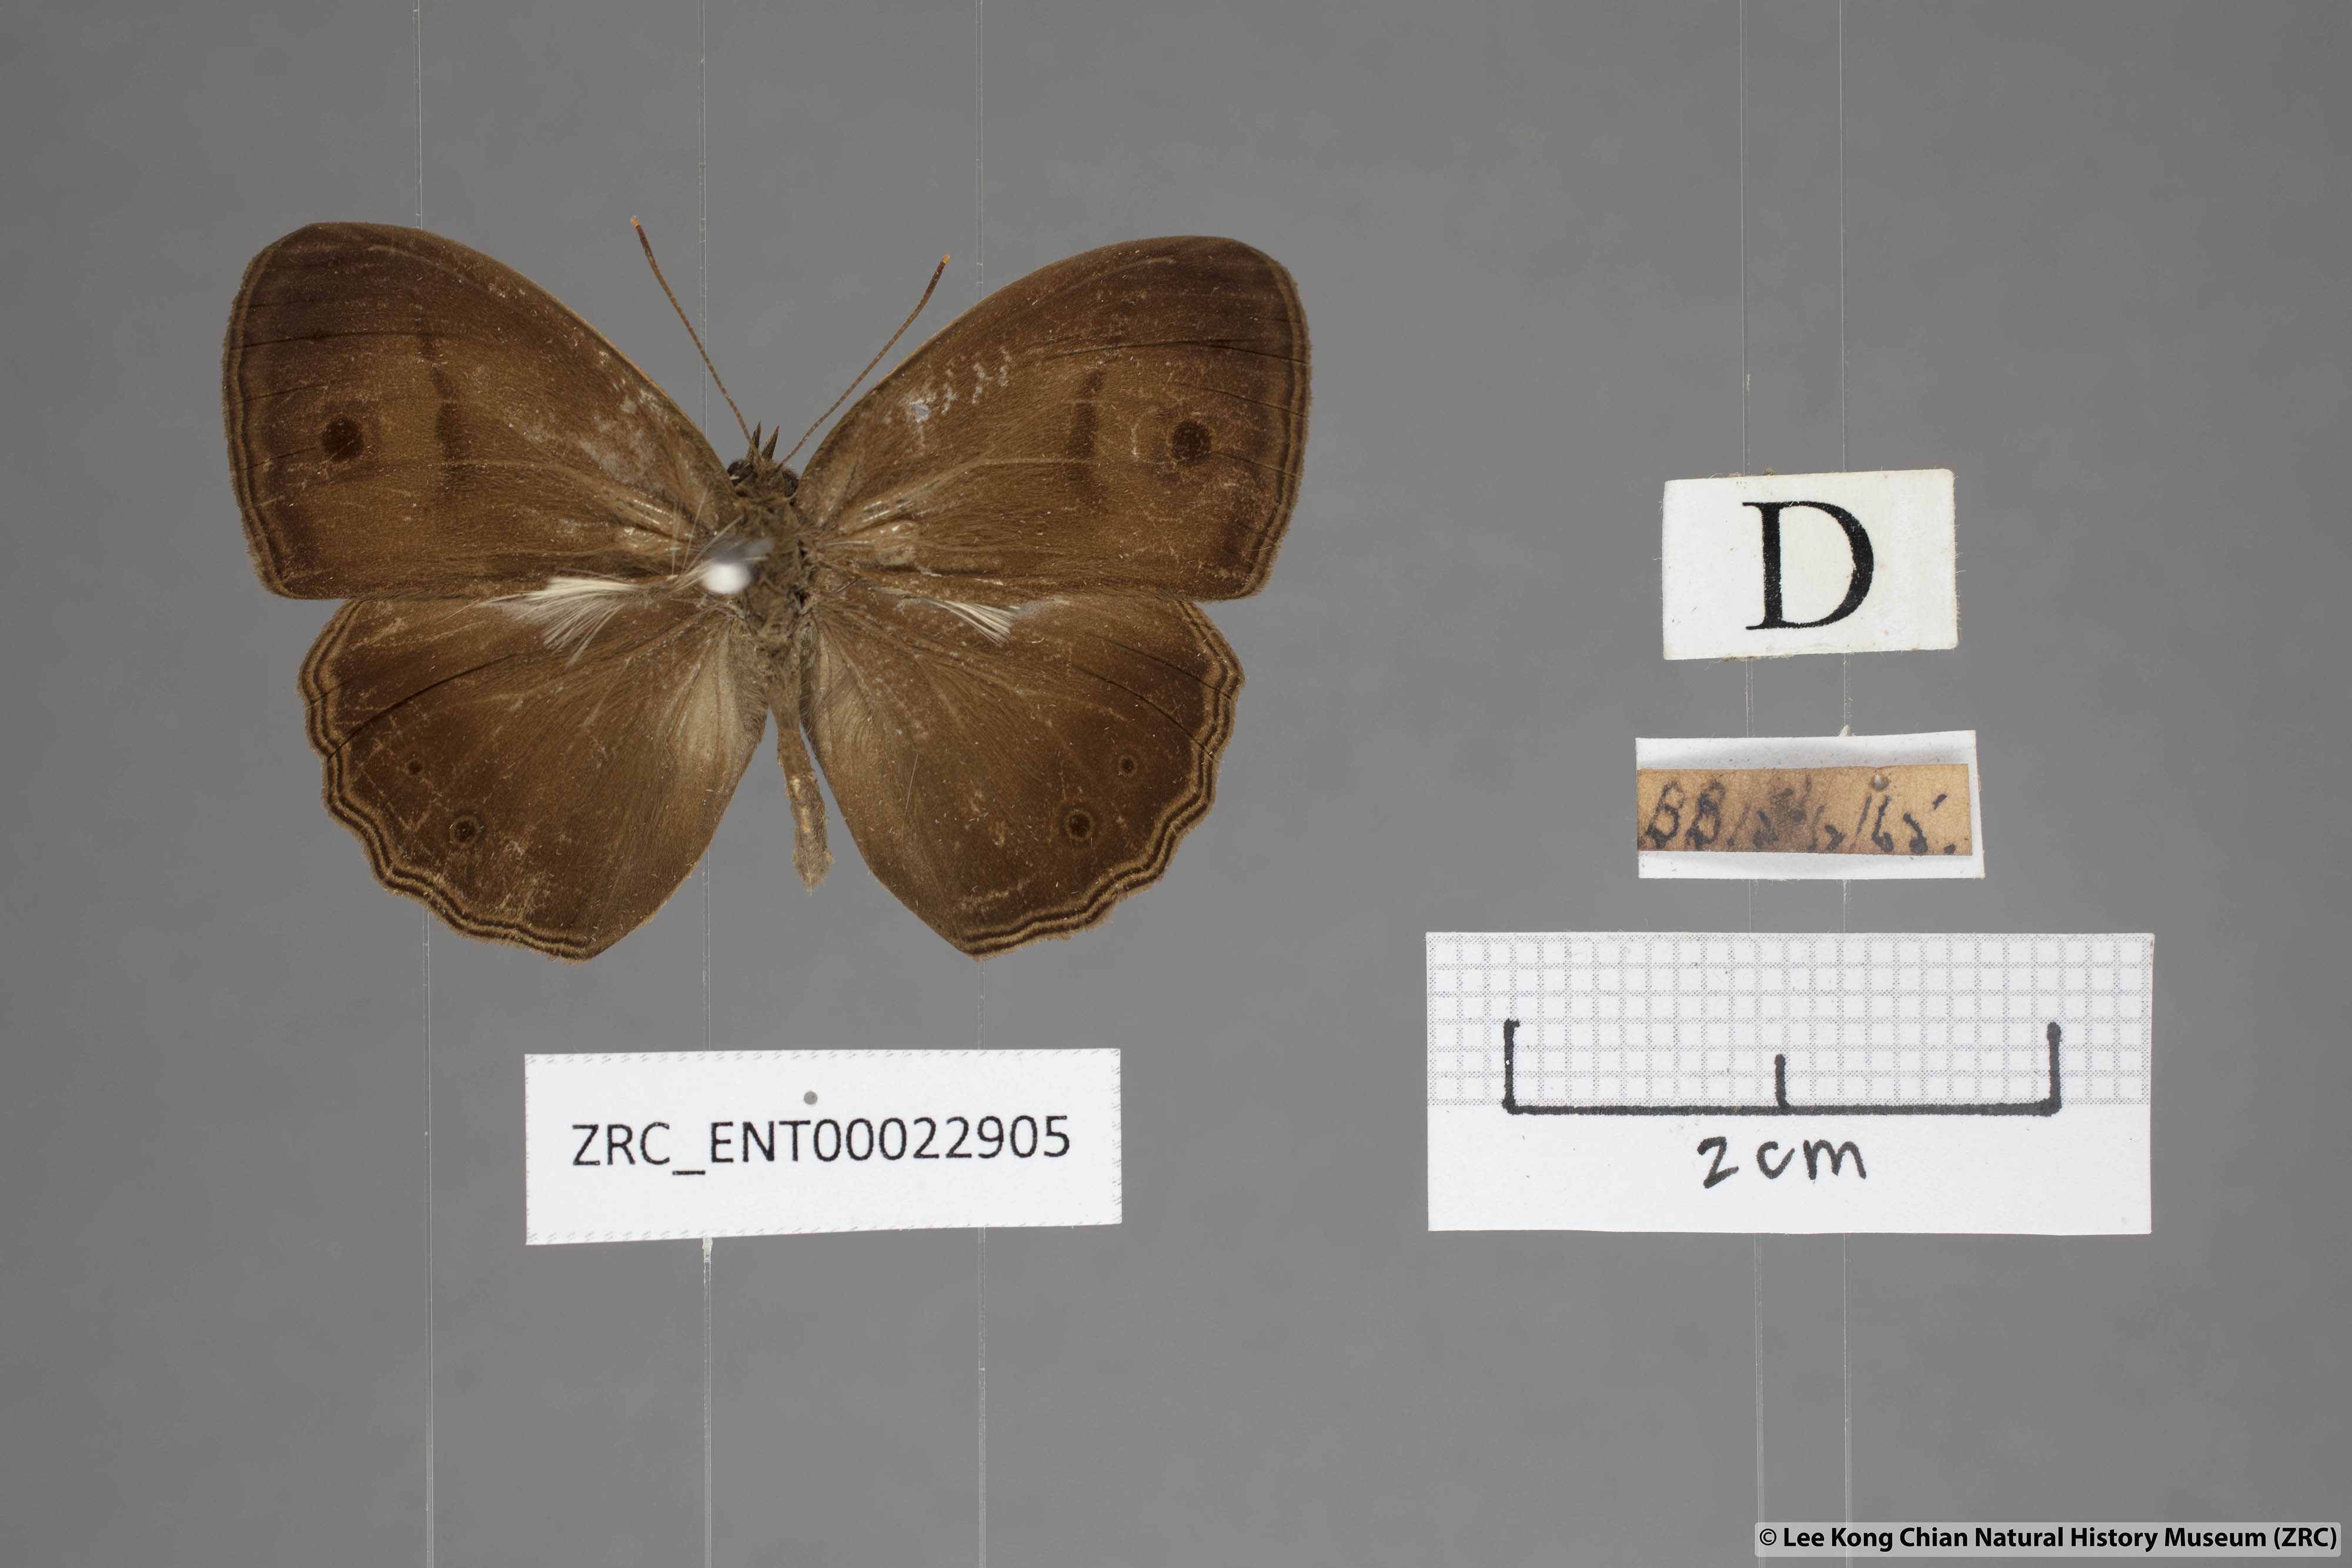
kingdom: Animalia
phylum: Arthropoda
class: Insecta
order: Lepidoptera
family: Nymphalidae
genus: Mycalesis
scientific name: Mycalesis fuscum
